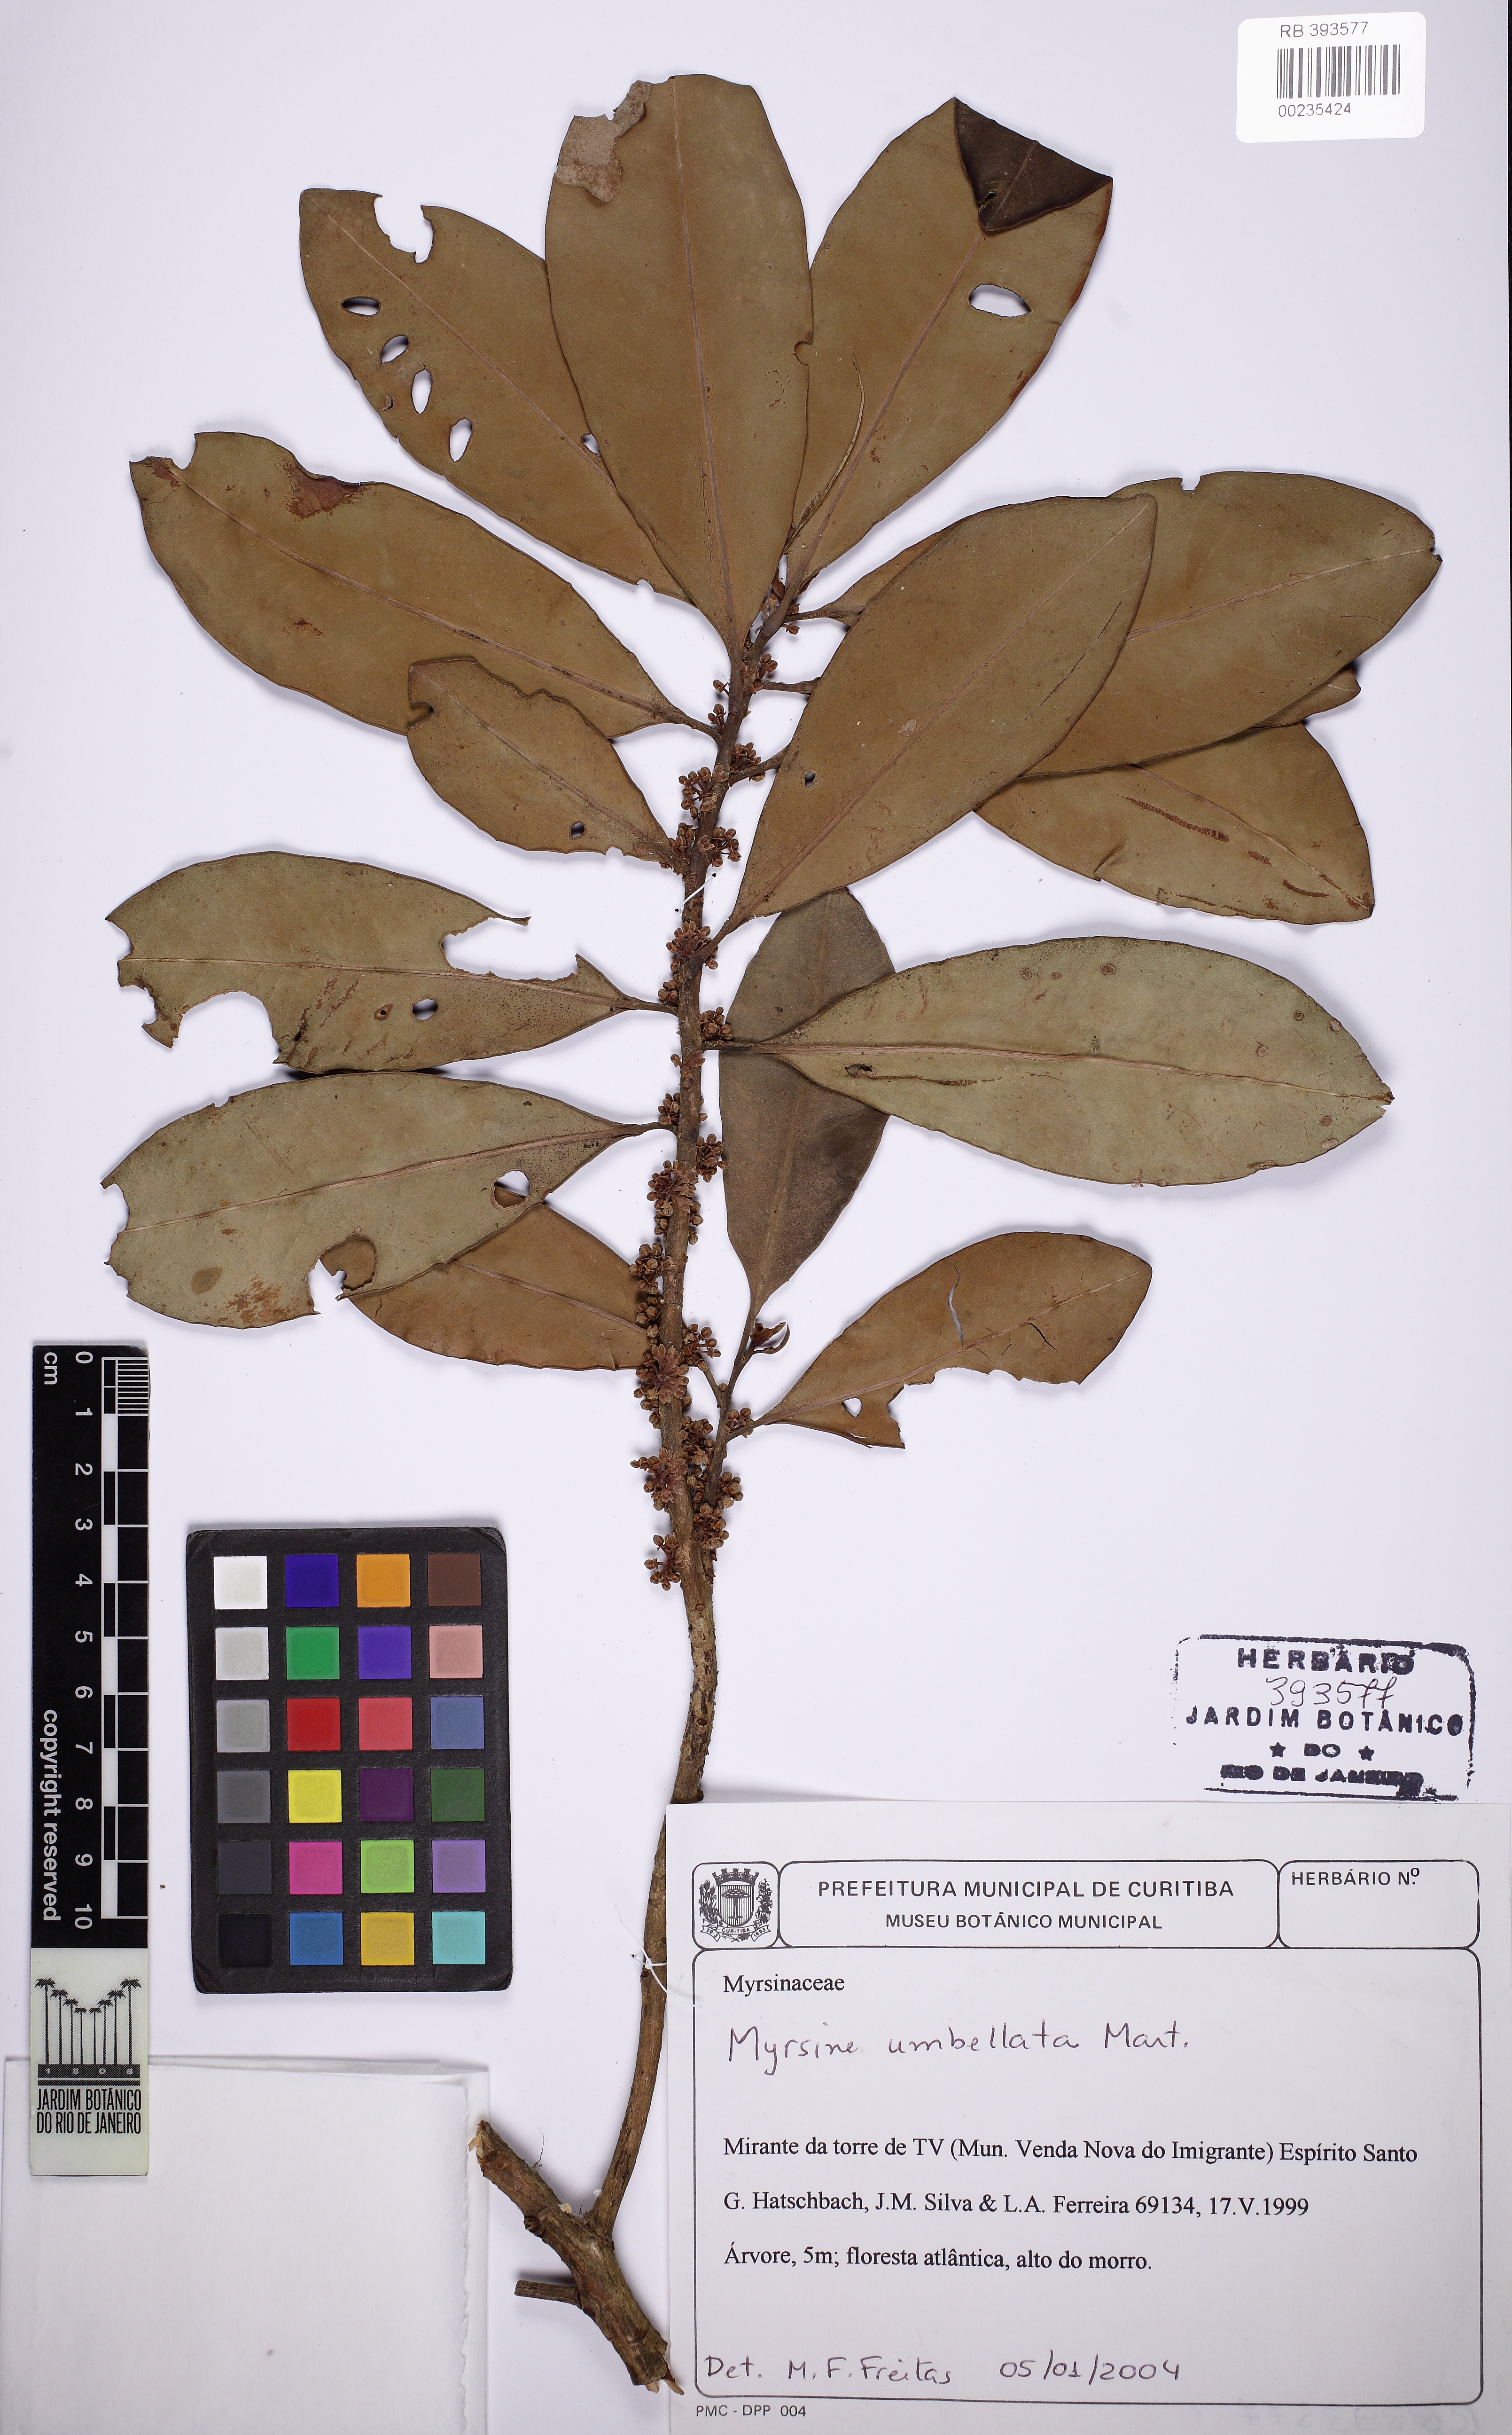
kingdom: Plantae
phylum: Tracheophyta
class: Magnoliopsida
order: Ericales
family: Primulaceae
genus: Myrsine
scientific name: Myrsine umbellata
